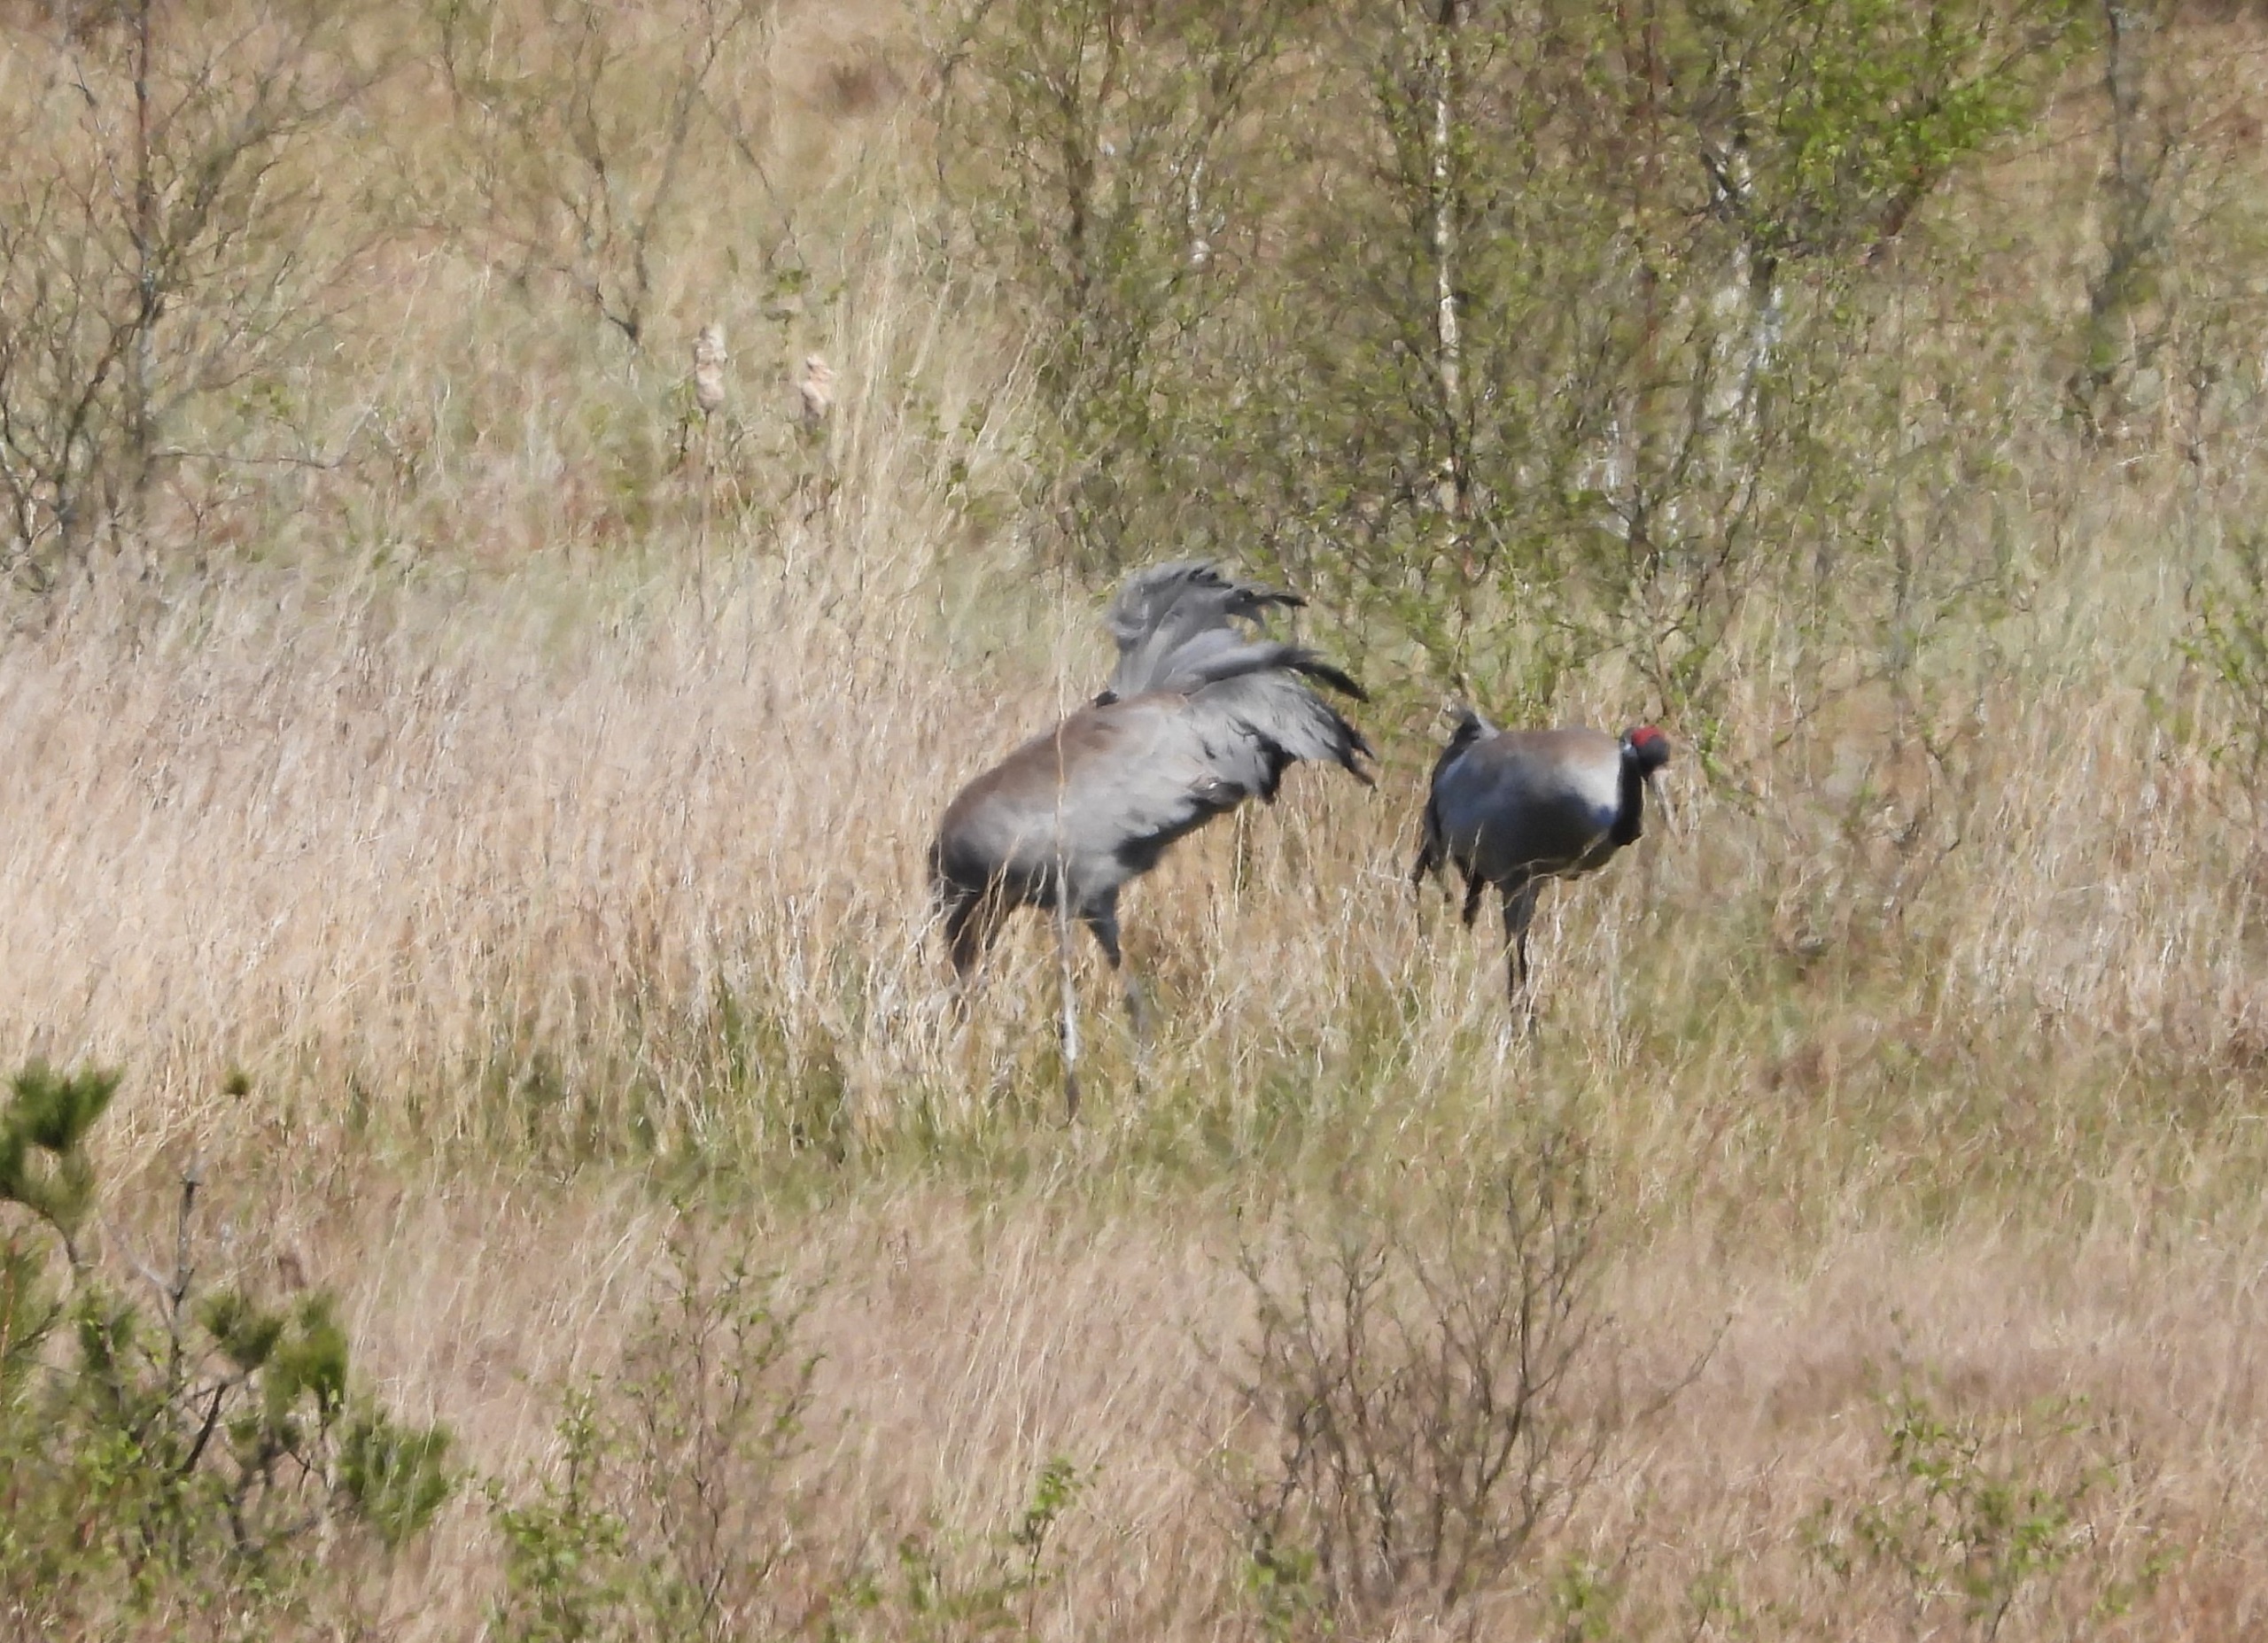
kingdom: Animalia
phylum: Chordata
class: Aves
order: Gruiformes
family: Gruidae
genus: Grus
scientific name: Grus grus
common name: Trane
